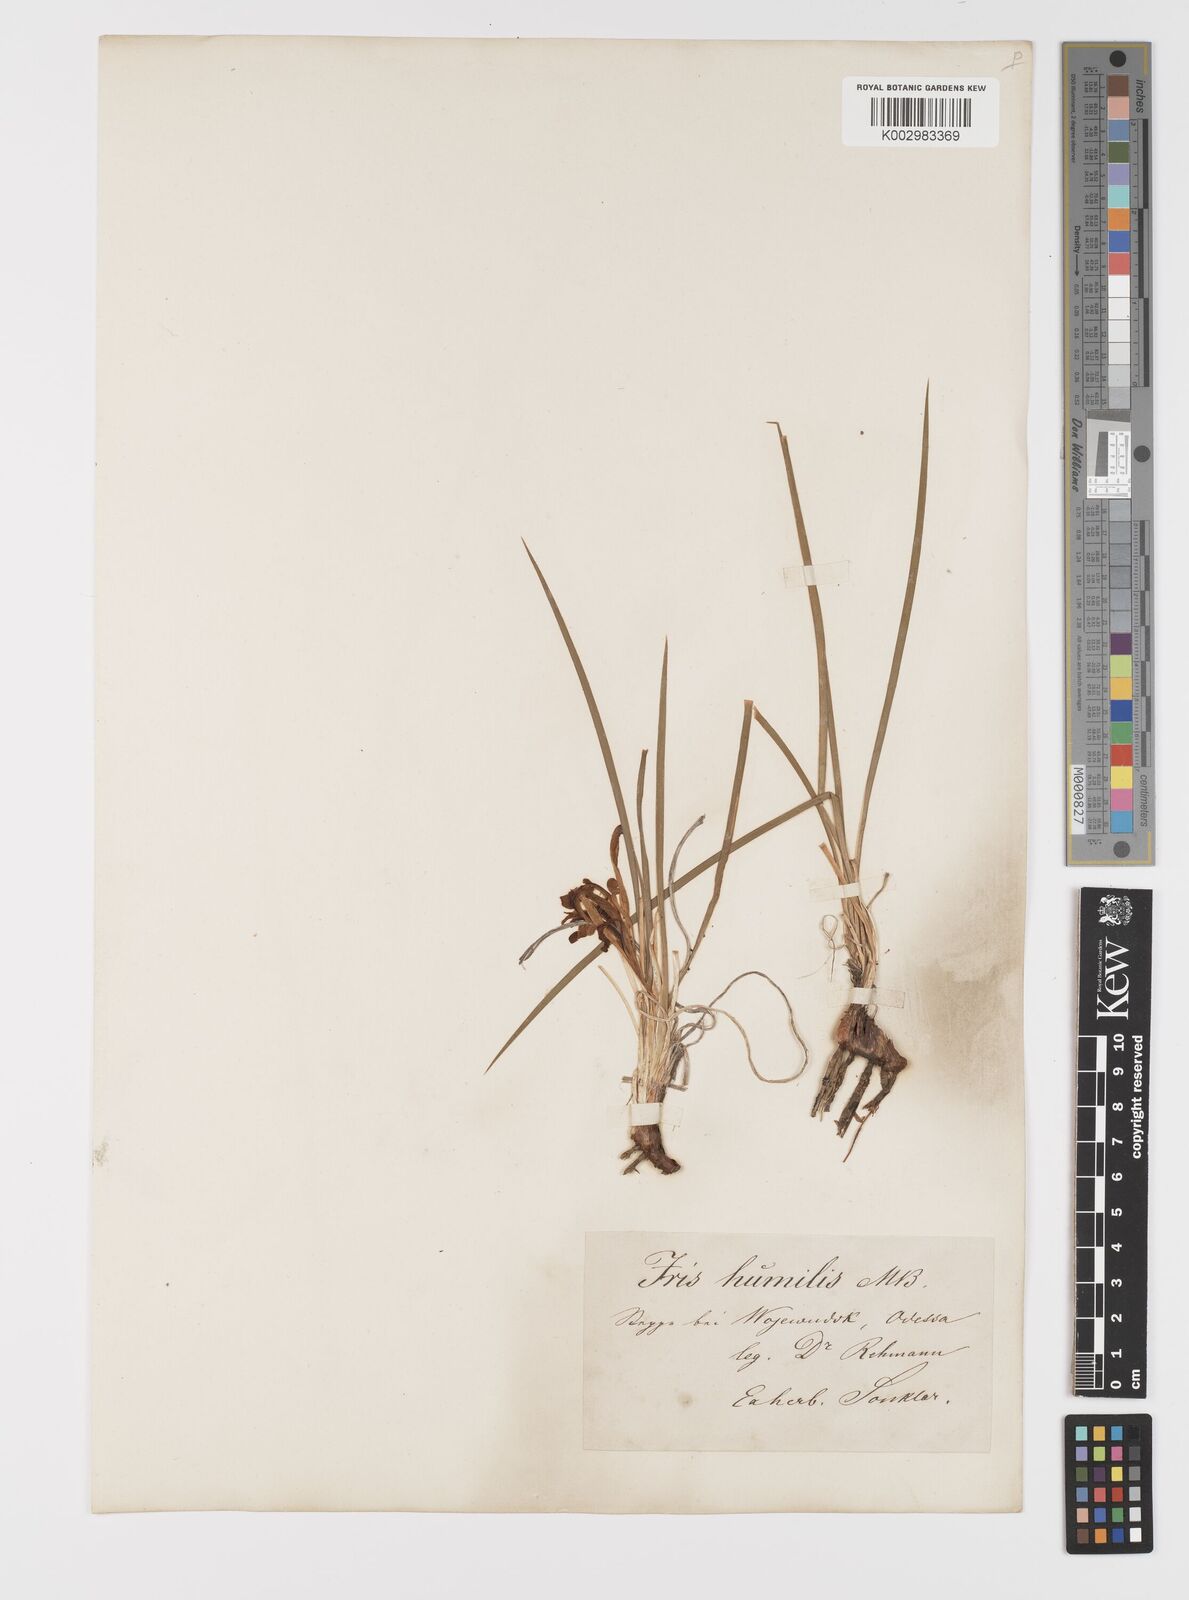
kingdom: Plantae
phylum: Tracheophyta
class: Liliopsida
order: Asparagales
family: Iridaceae
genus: Iris
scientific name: Iris
